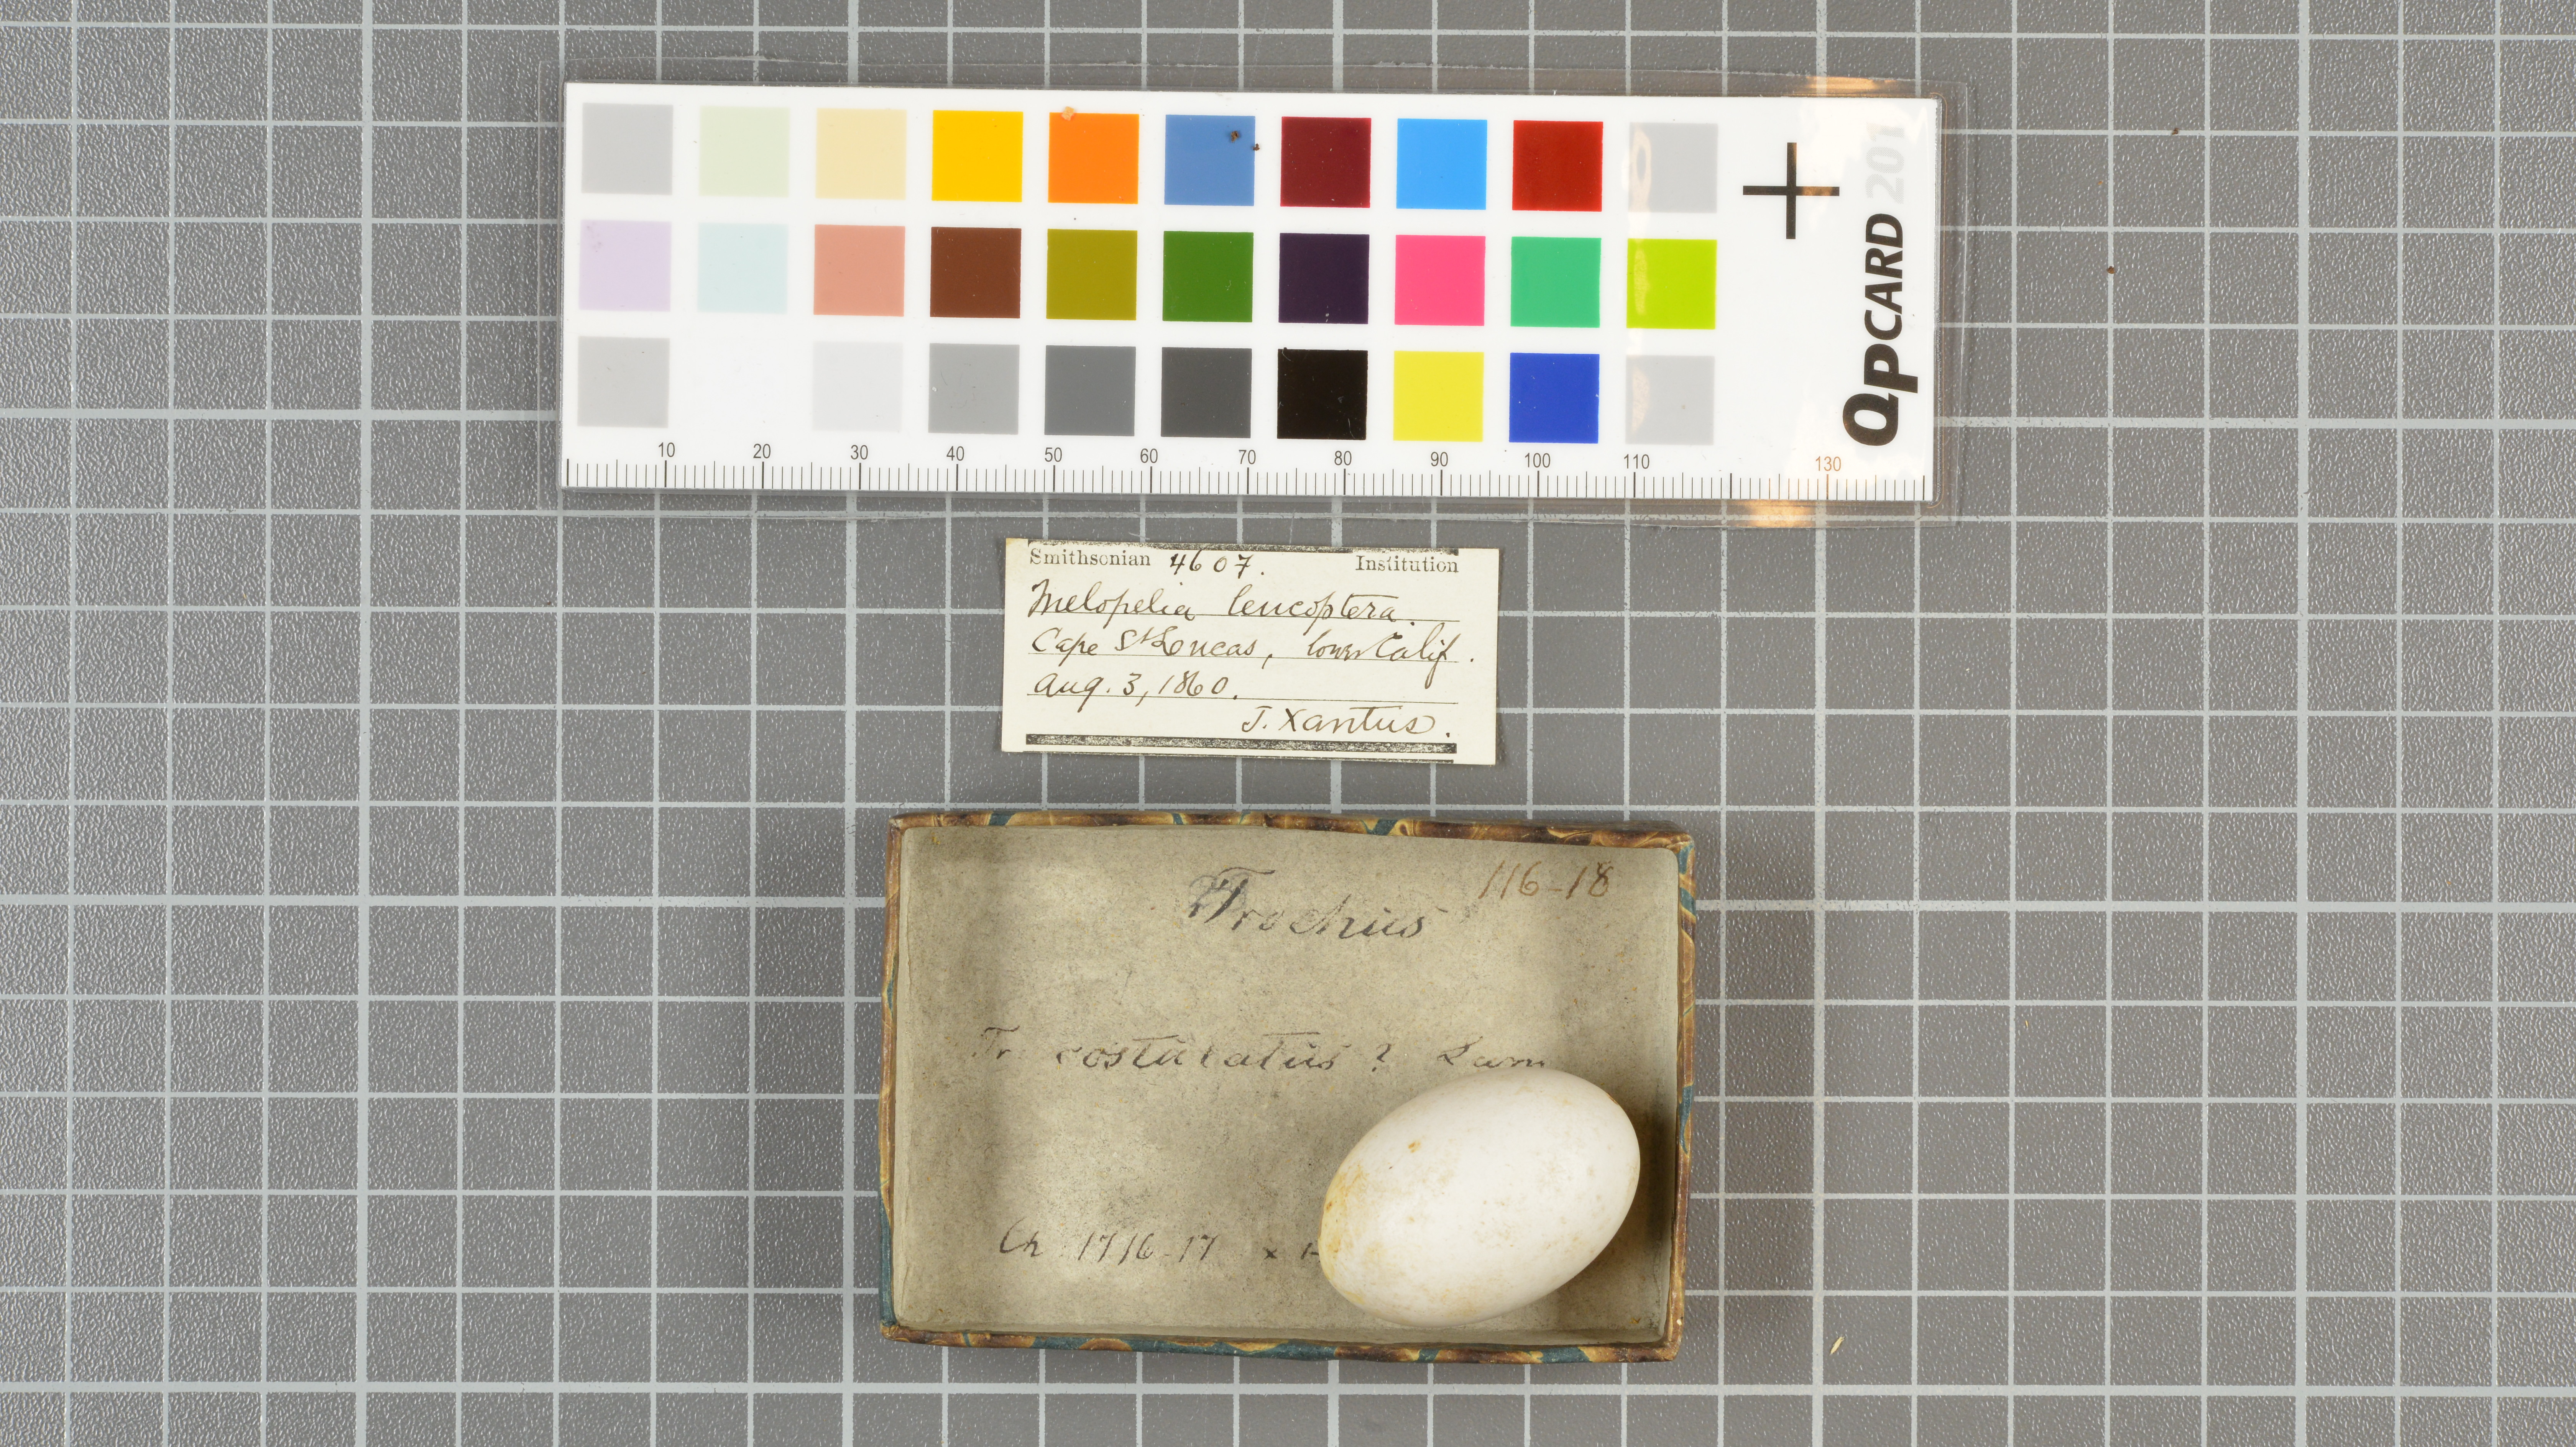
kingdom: Animalia
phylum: Chordata
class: Aves
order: Columbiformes
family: Columbidae
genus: Zenaida
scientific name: Zenaida asiatica
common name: White-winged dove
